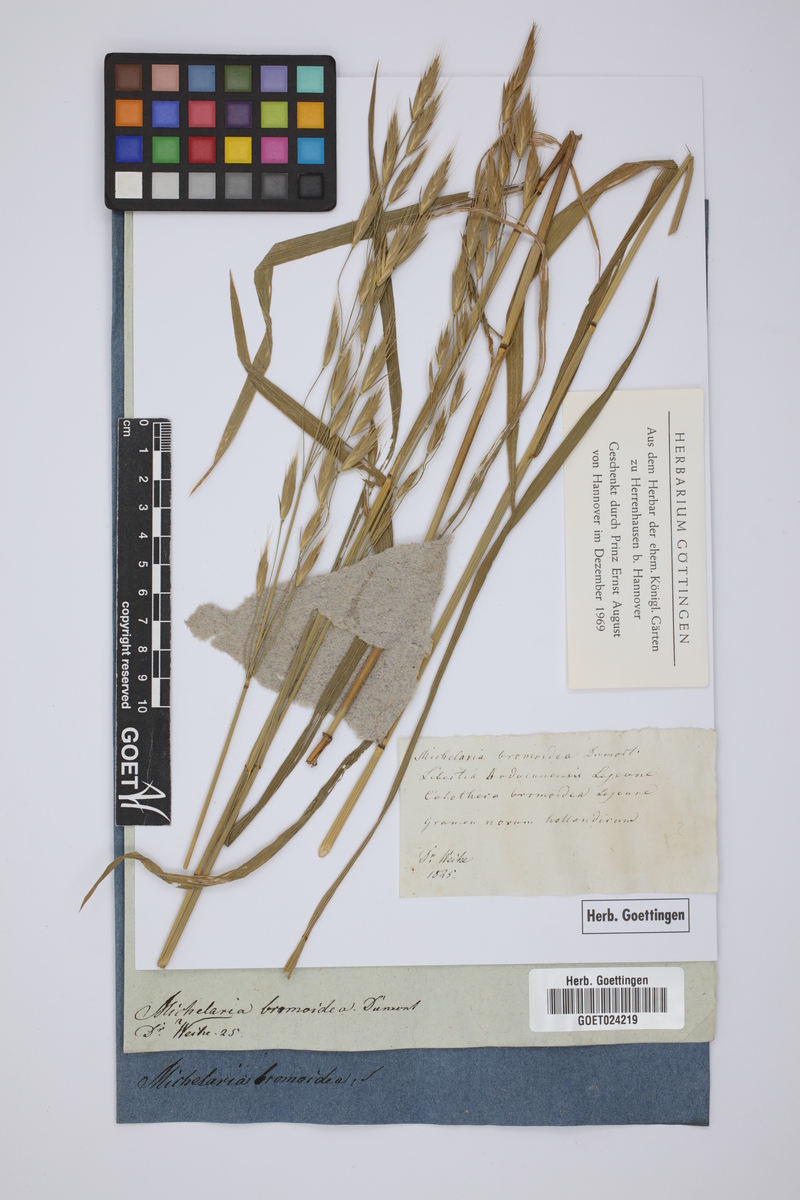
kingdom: Plantae
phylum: Tracheophyta
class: Liliopsida
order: Poales
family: Poaceae
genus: Bromus
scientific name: Bromus bromoideus
